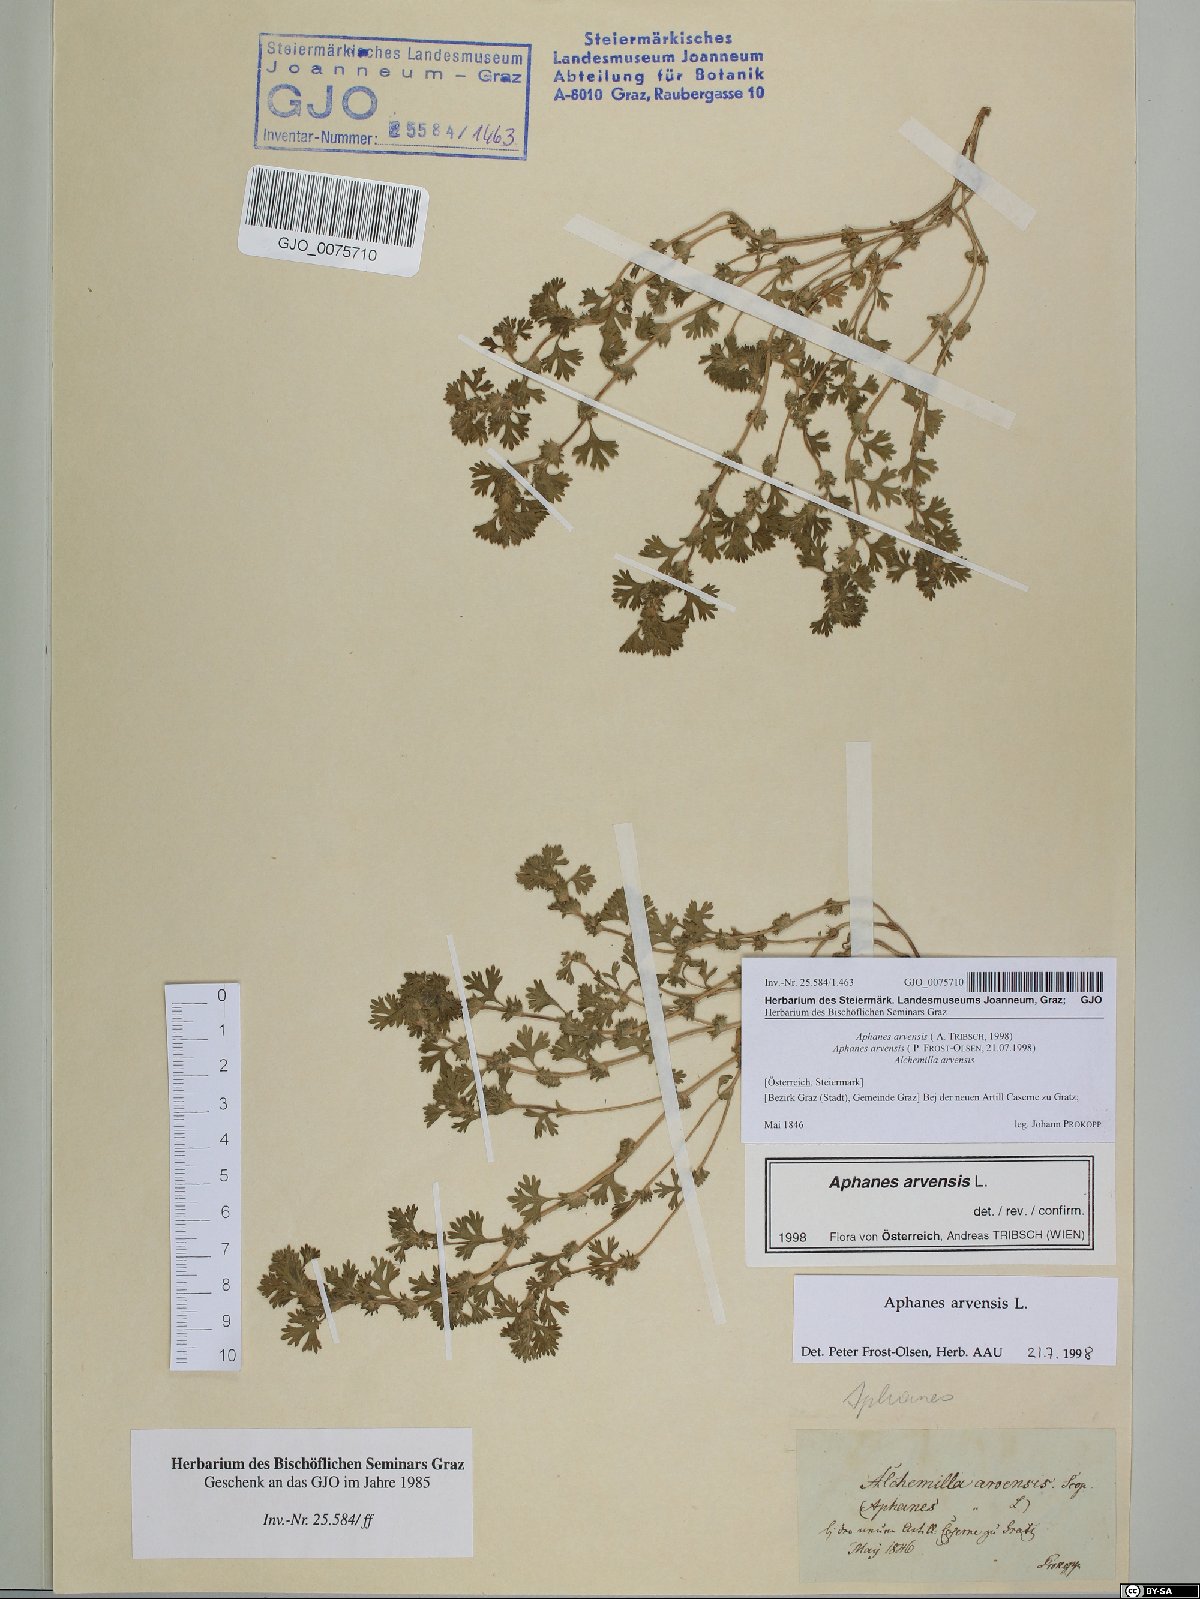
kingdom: Plantae
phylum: Tracheophyta
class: Magnoliopsida
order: Rosales
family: Rosaceae
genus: Aphanes
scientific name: Aphanes arvensis
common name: Parsley-piert
